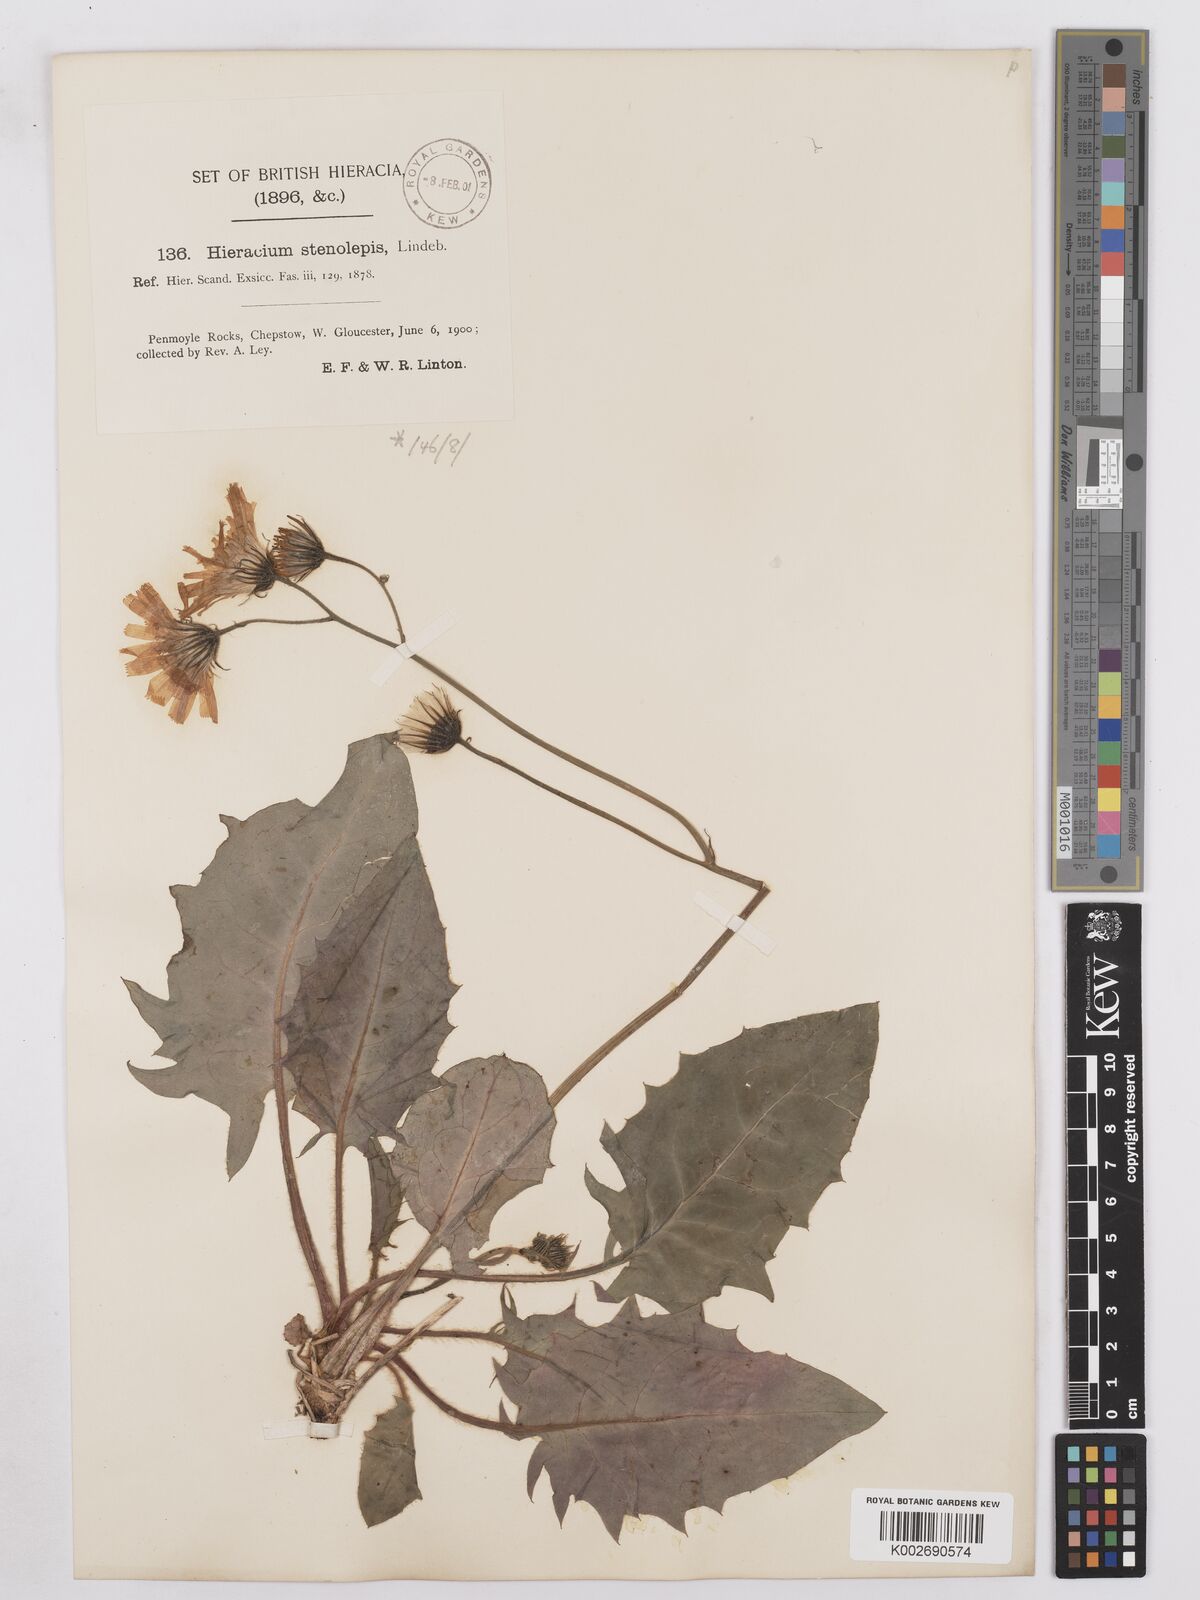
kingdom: Plantae
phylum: Tracheophyta
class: Magnoliopsida
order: Asterales
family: Asteraceae
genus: Hieracium
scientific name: Hieracium subbritannicum
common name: Limestone hawkweed
